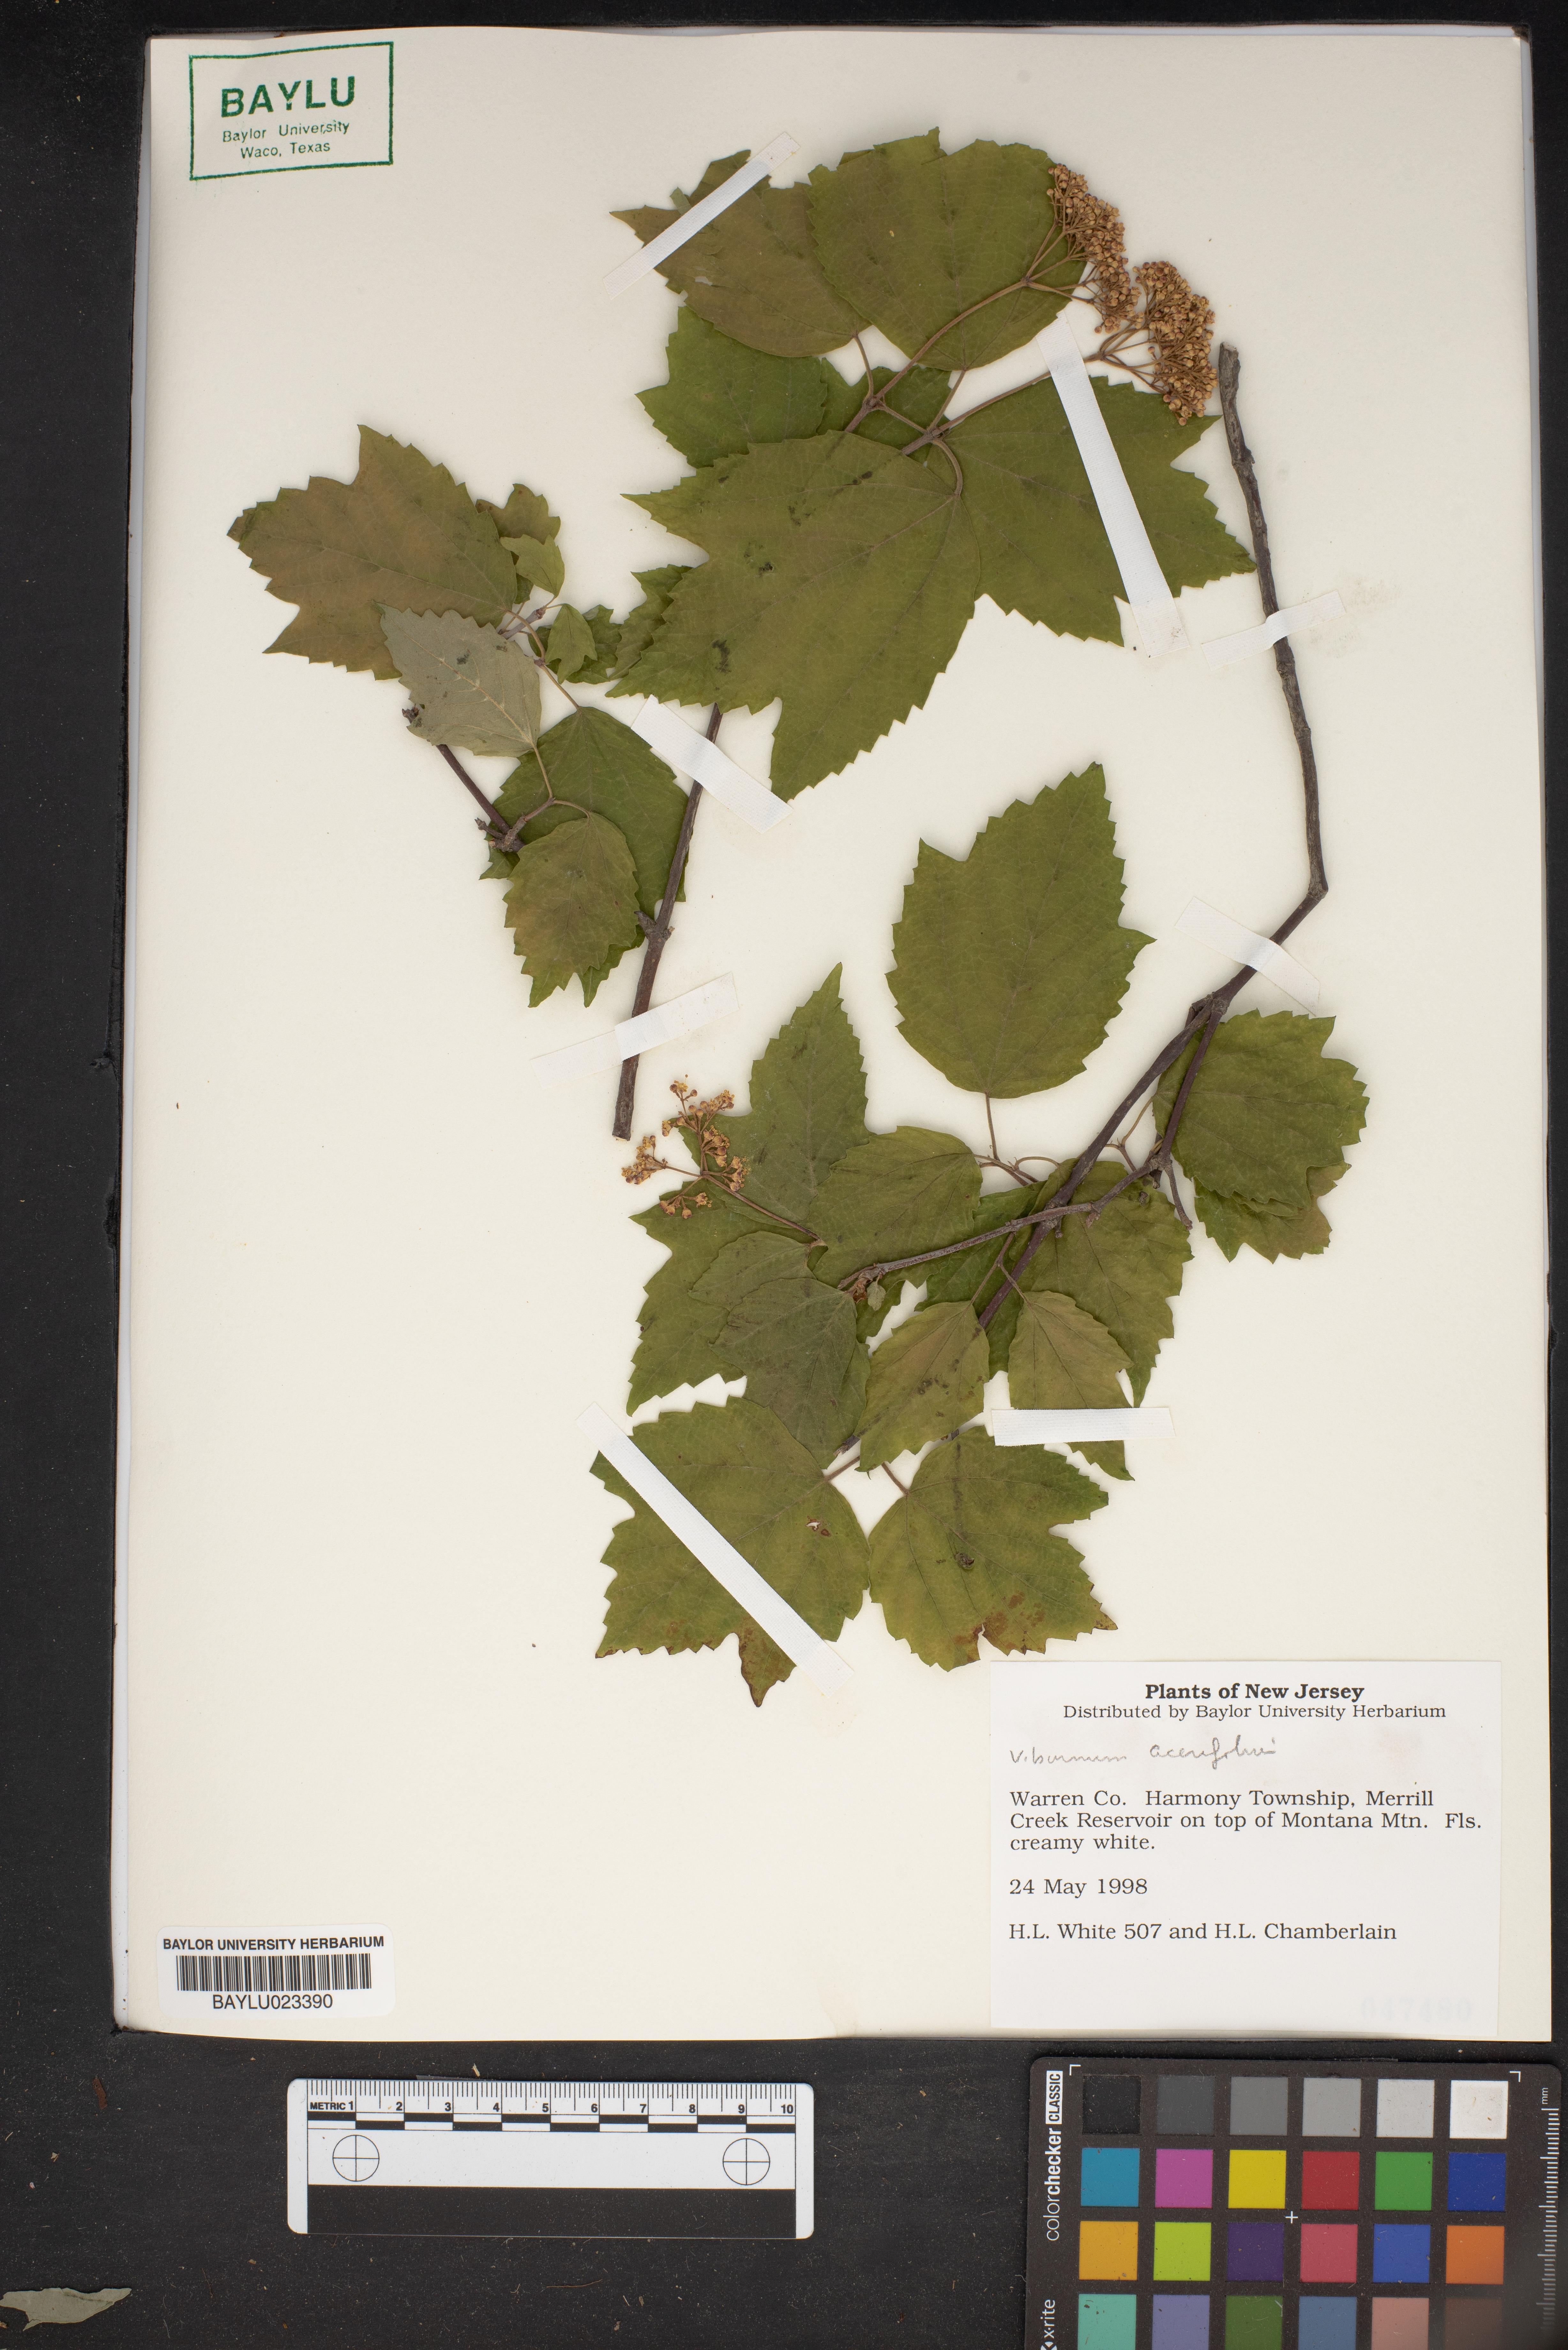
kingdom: Plantae
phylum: Tracheophyta
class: Magnoliopsida
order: Dipsacales
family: Viburnaceae
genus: Viburnum
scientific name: Viburnum acerifolium
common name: Dockmackie
